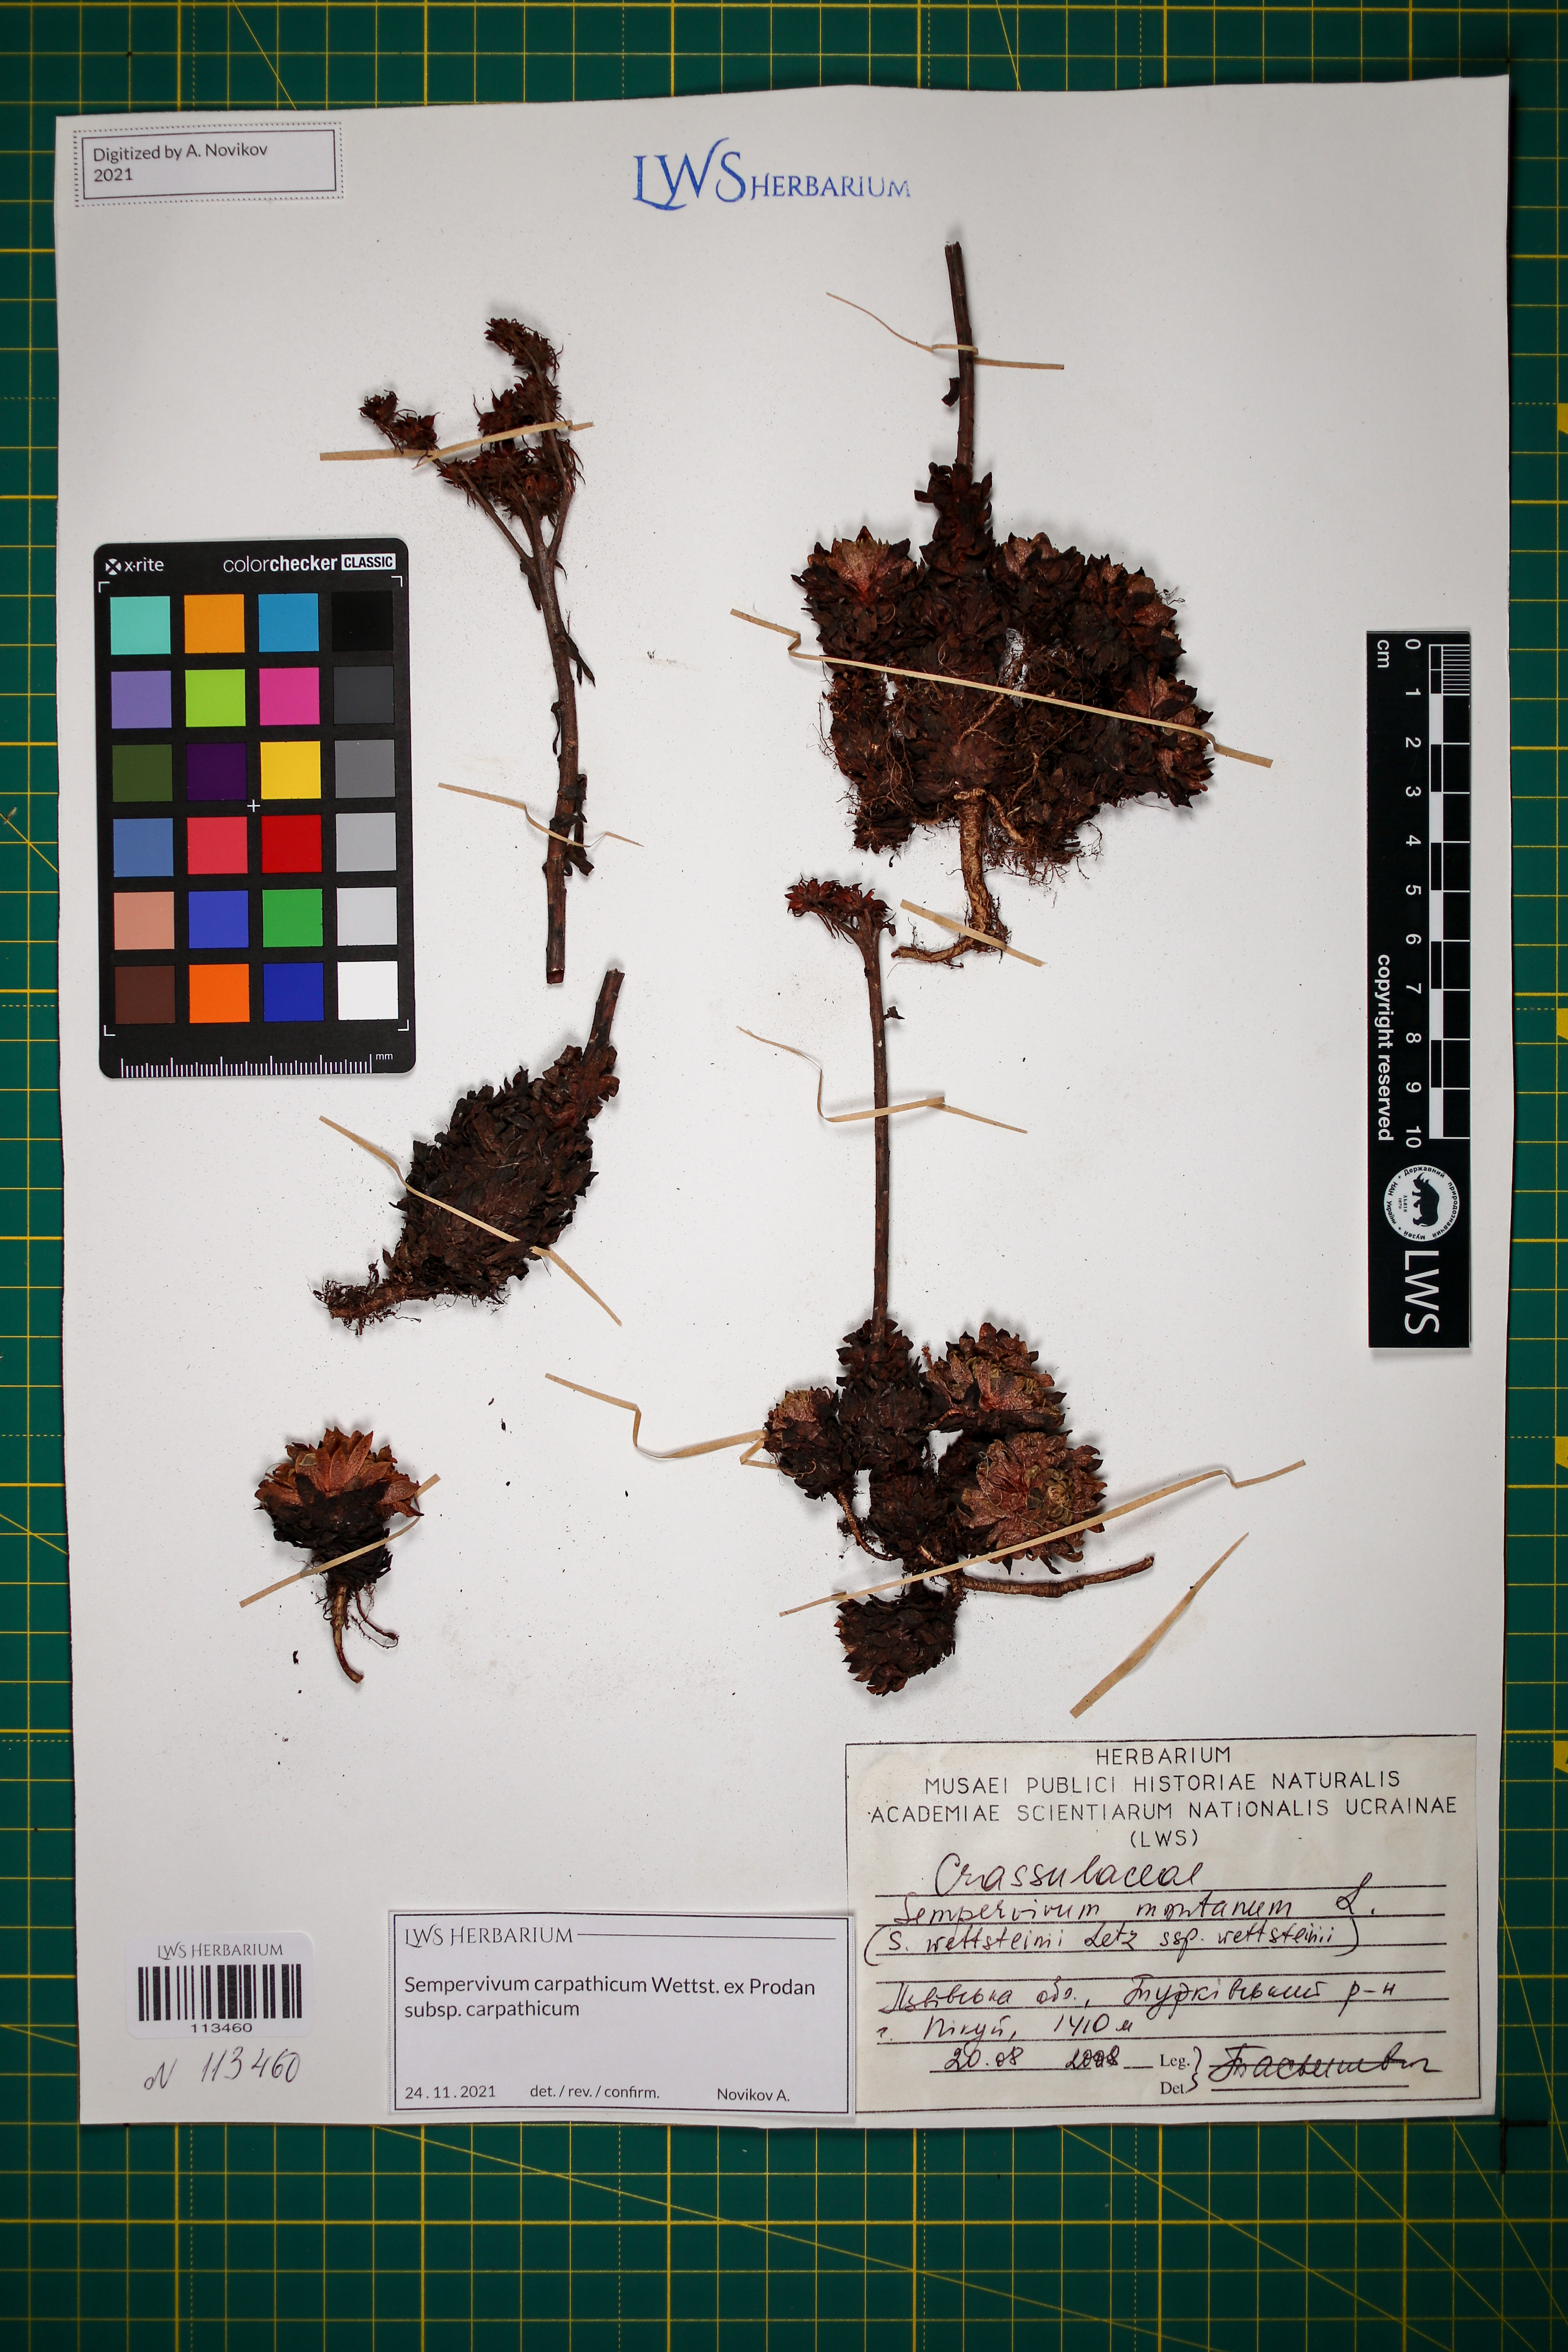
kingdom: Plantae
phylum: Tracheophyta
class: Magnoliopsida
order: Saxifragales
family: Crassulaceae
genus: Sempervivum
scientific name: Sempervivum montanum
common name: Mountain house-leek
